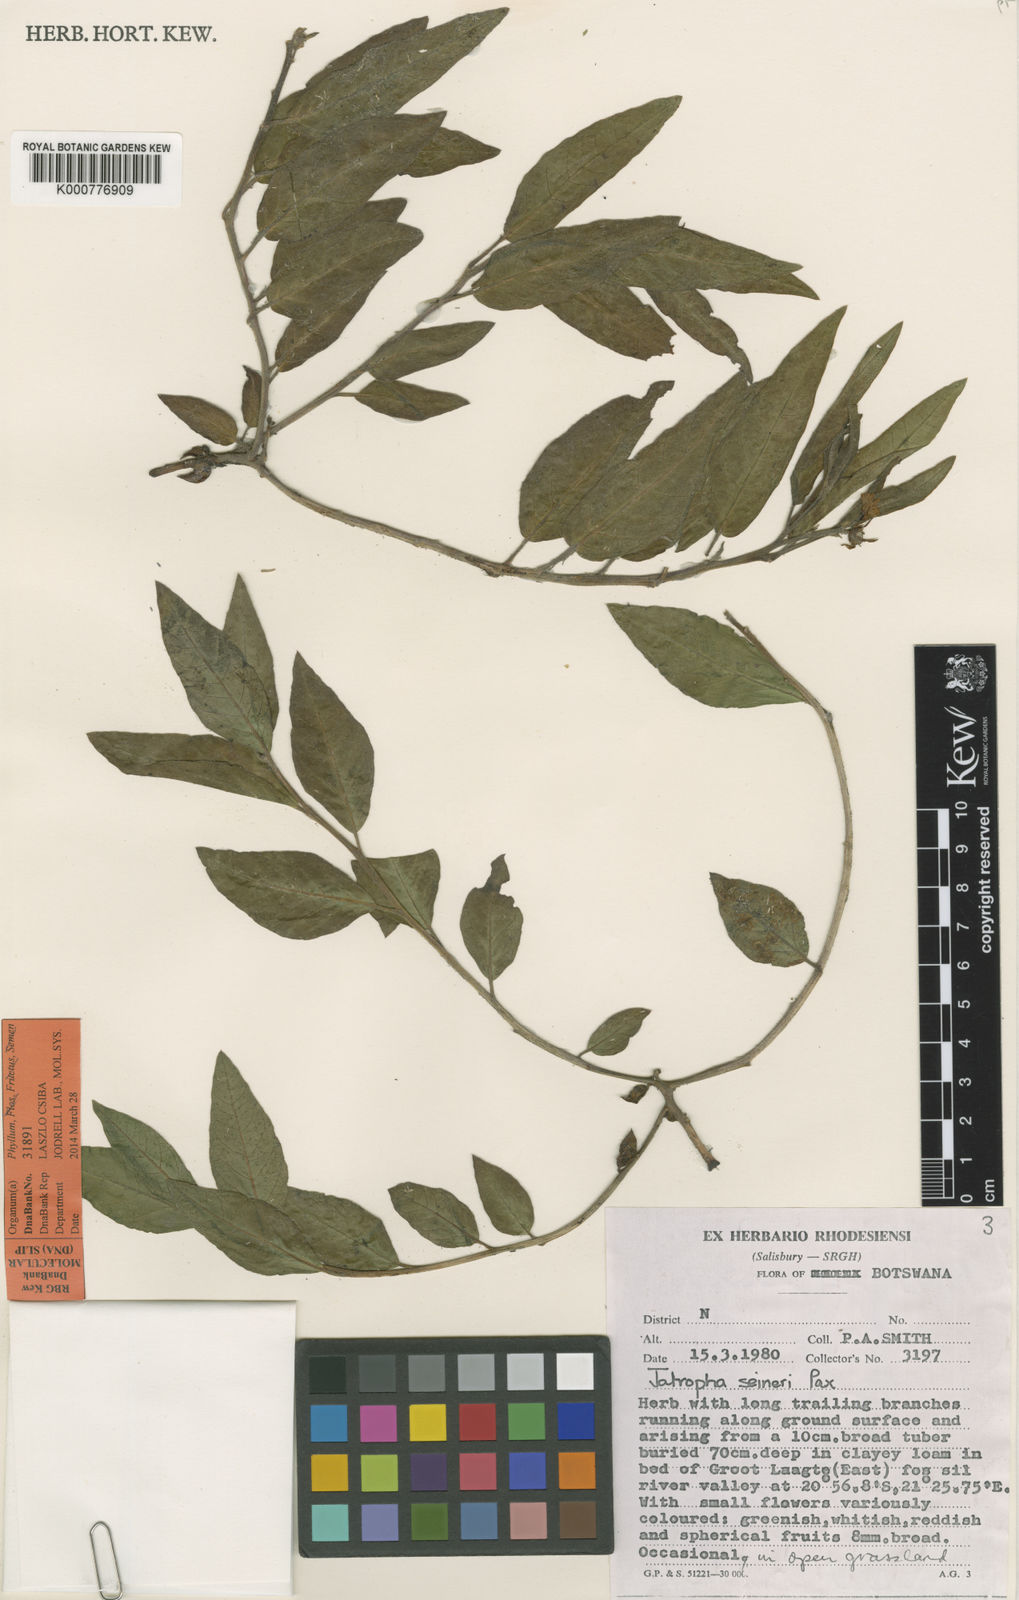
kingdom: Plantae
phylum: Tracheophyta
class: Magnoliopsida
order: Malpighiales
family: Euphorbiaceae
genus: Jatropha
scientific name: Jatropha seineri
